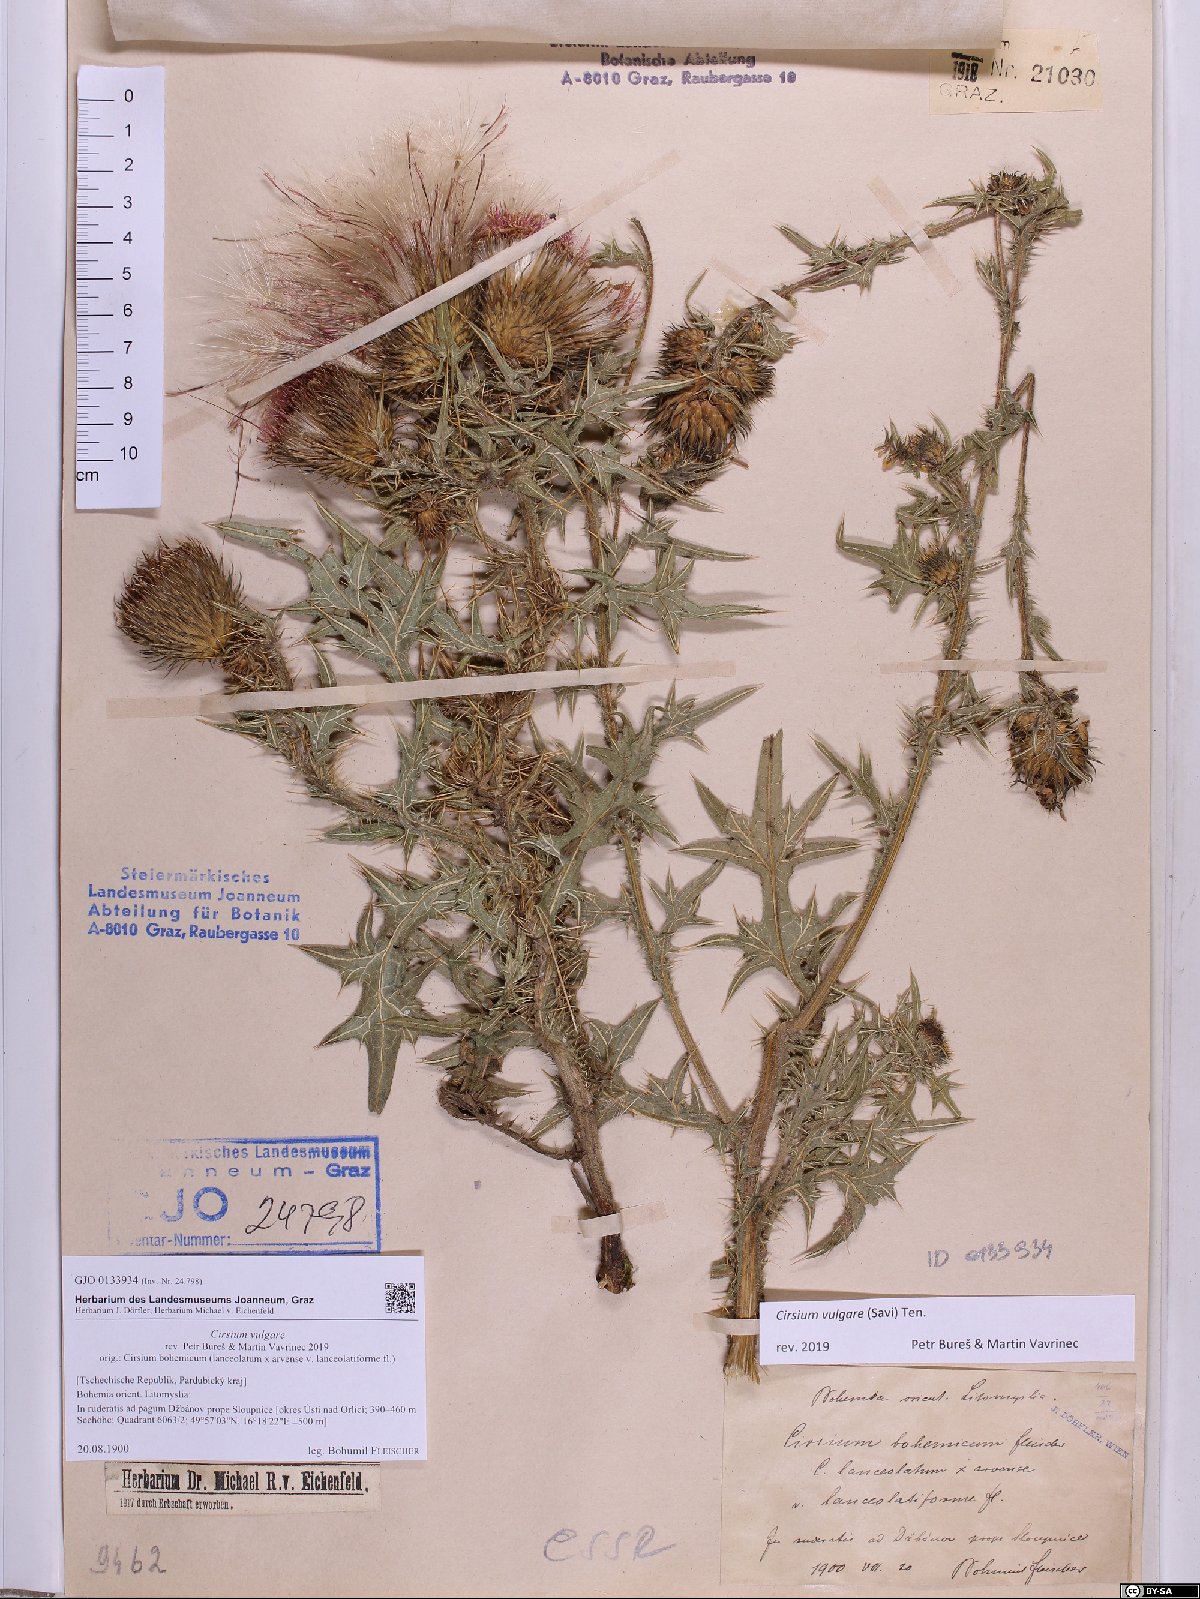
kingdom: Plantae
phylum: Tracheophyta
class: Magnoliopsida
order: Asterales
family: Asteraceae
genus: Cirsium
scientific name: Cirsium vulgare
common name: Bull thistle
